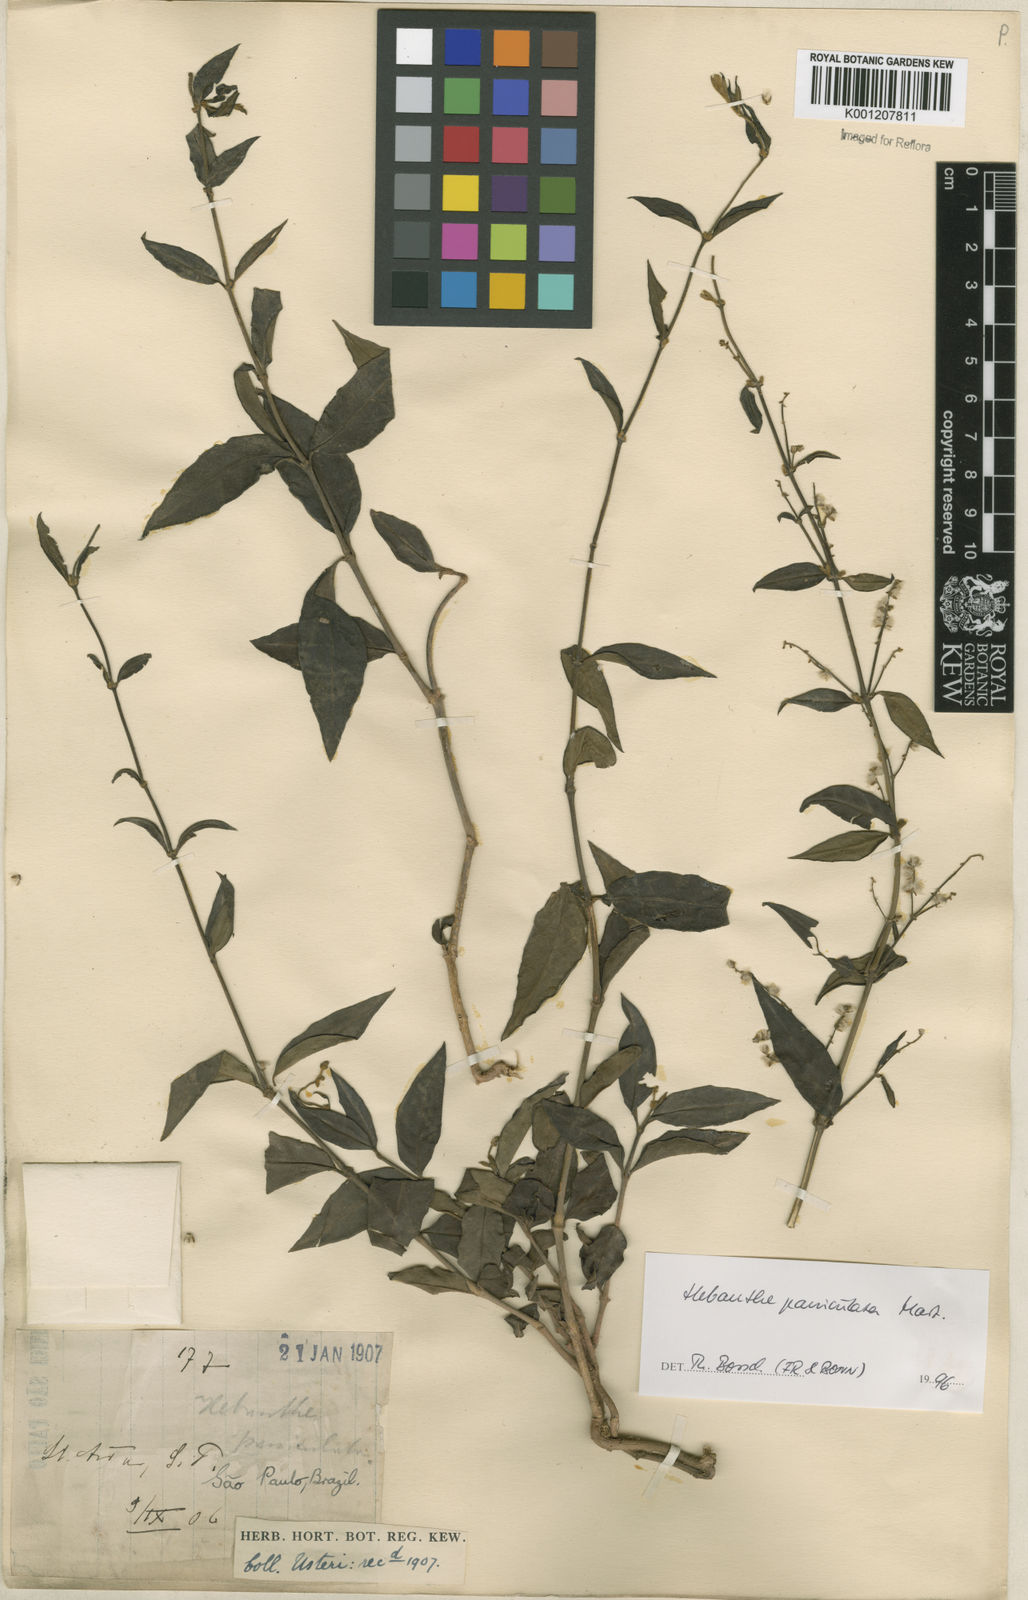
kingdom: Plantae
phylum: Tracheophyta
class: Magnoliopsida
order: Caryophyllales
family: Amaranthaceae
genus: Hebanthe
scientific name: Hebanthe erianthos
